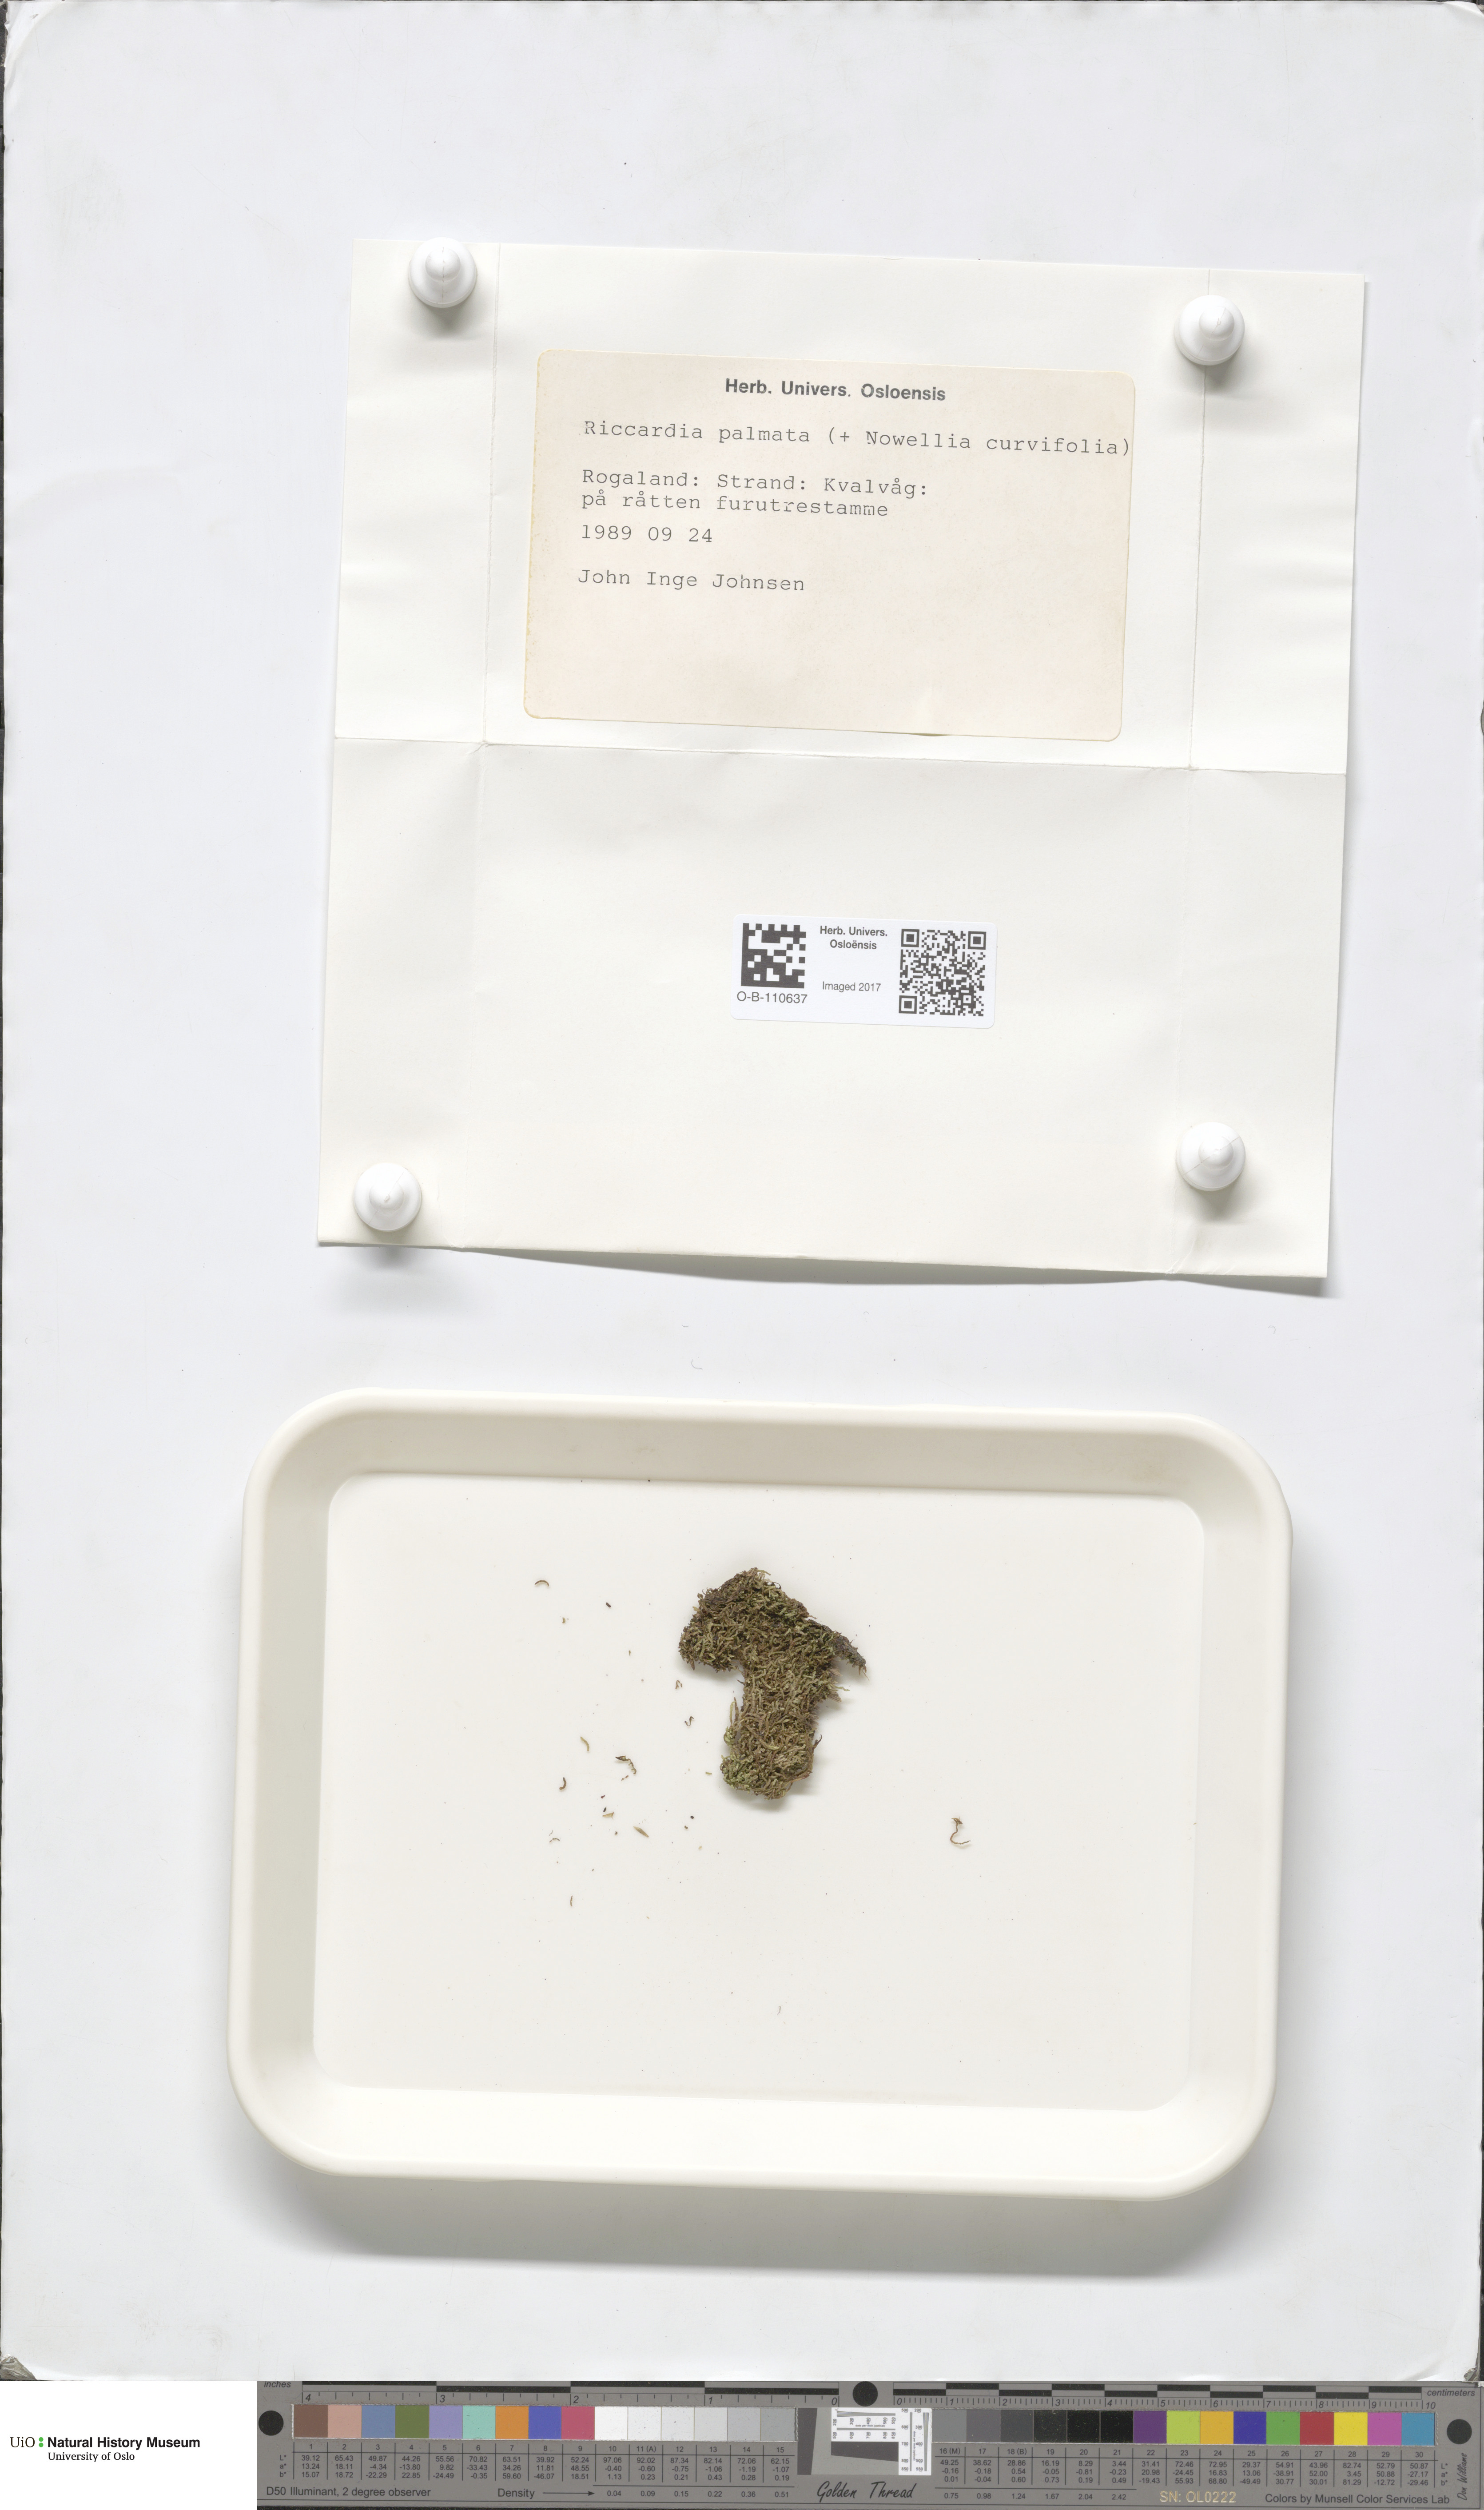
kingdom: Plantae
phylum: Marchantiophyta
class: Jungermanniopsida
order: Metzgeriales
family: Aneuraceae
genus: Riccardia
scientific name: Riccardia palmata
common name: Palmate germanderwort
